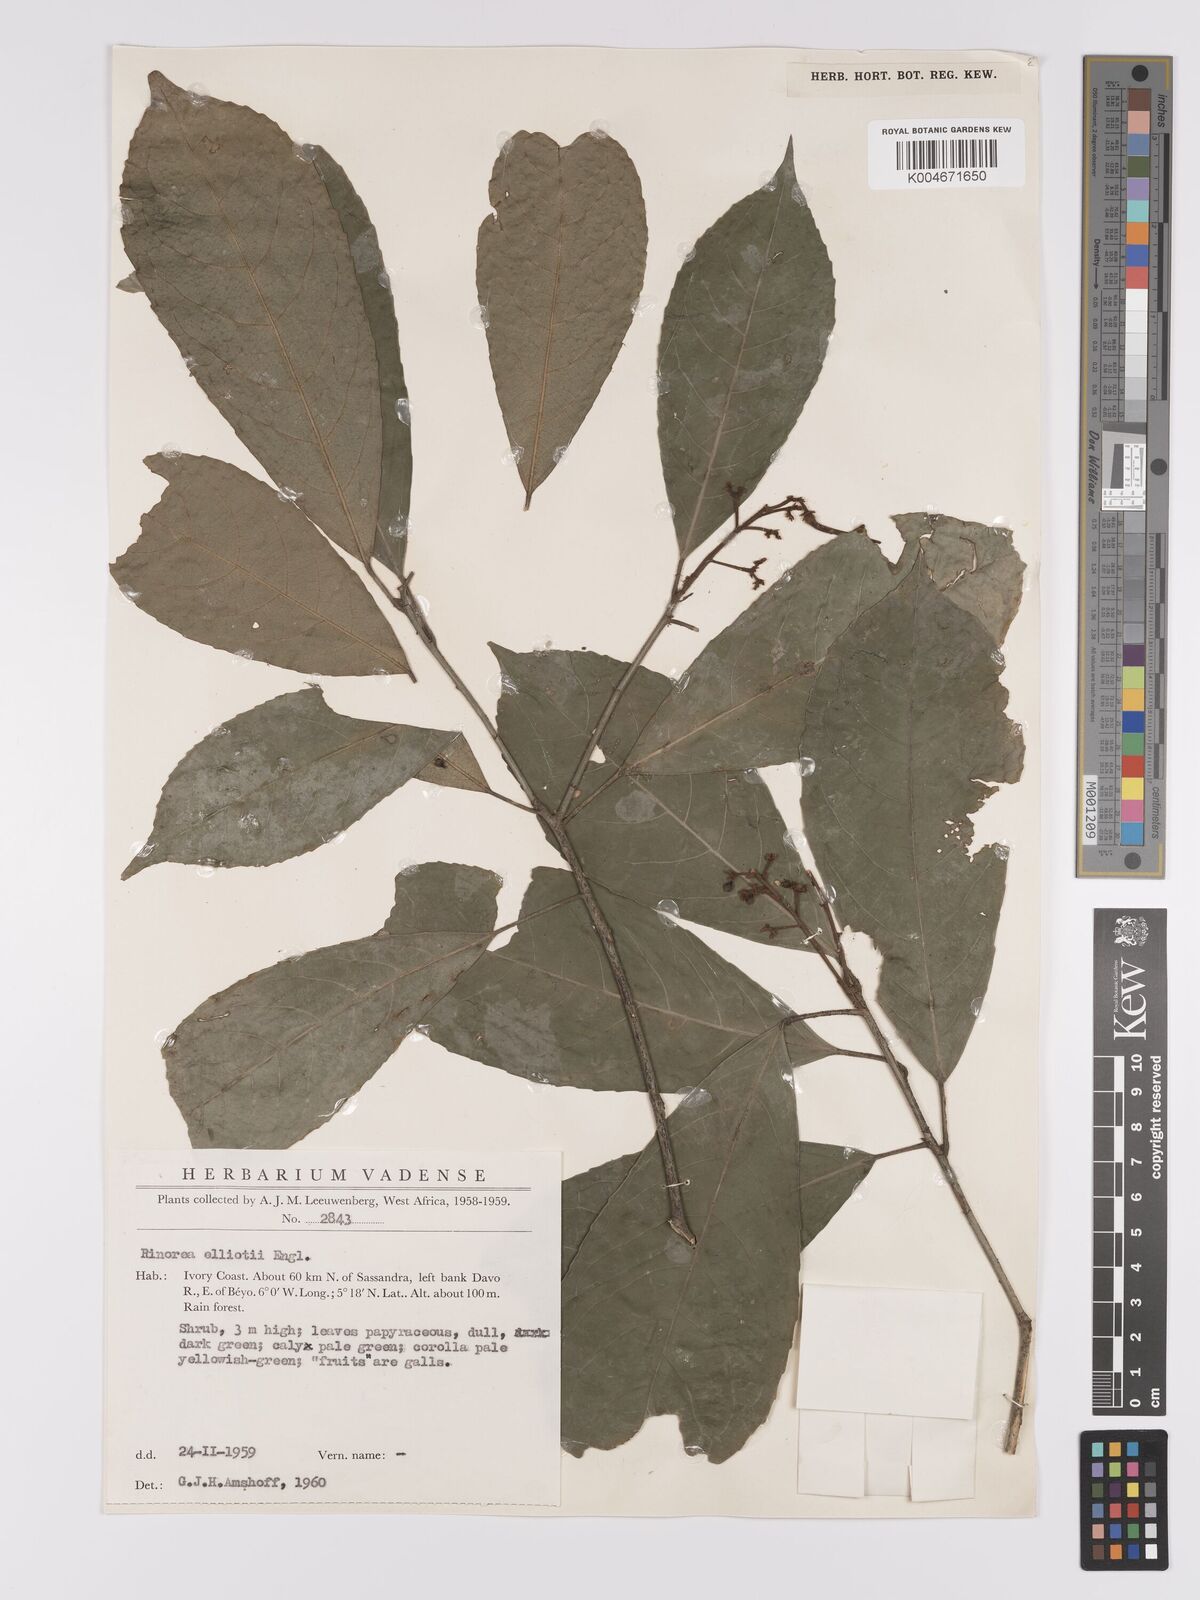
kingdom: Plantae
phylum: Tracheophyta
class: Magnoliopsida
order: Malpighiales
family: Violaceae
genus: Rinorea
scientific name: Rinorea welwitschii
